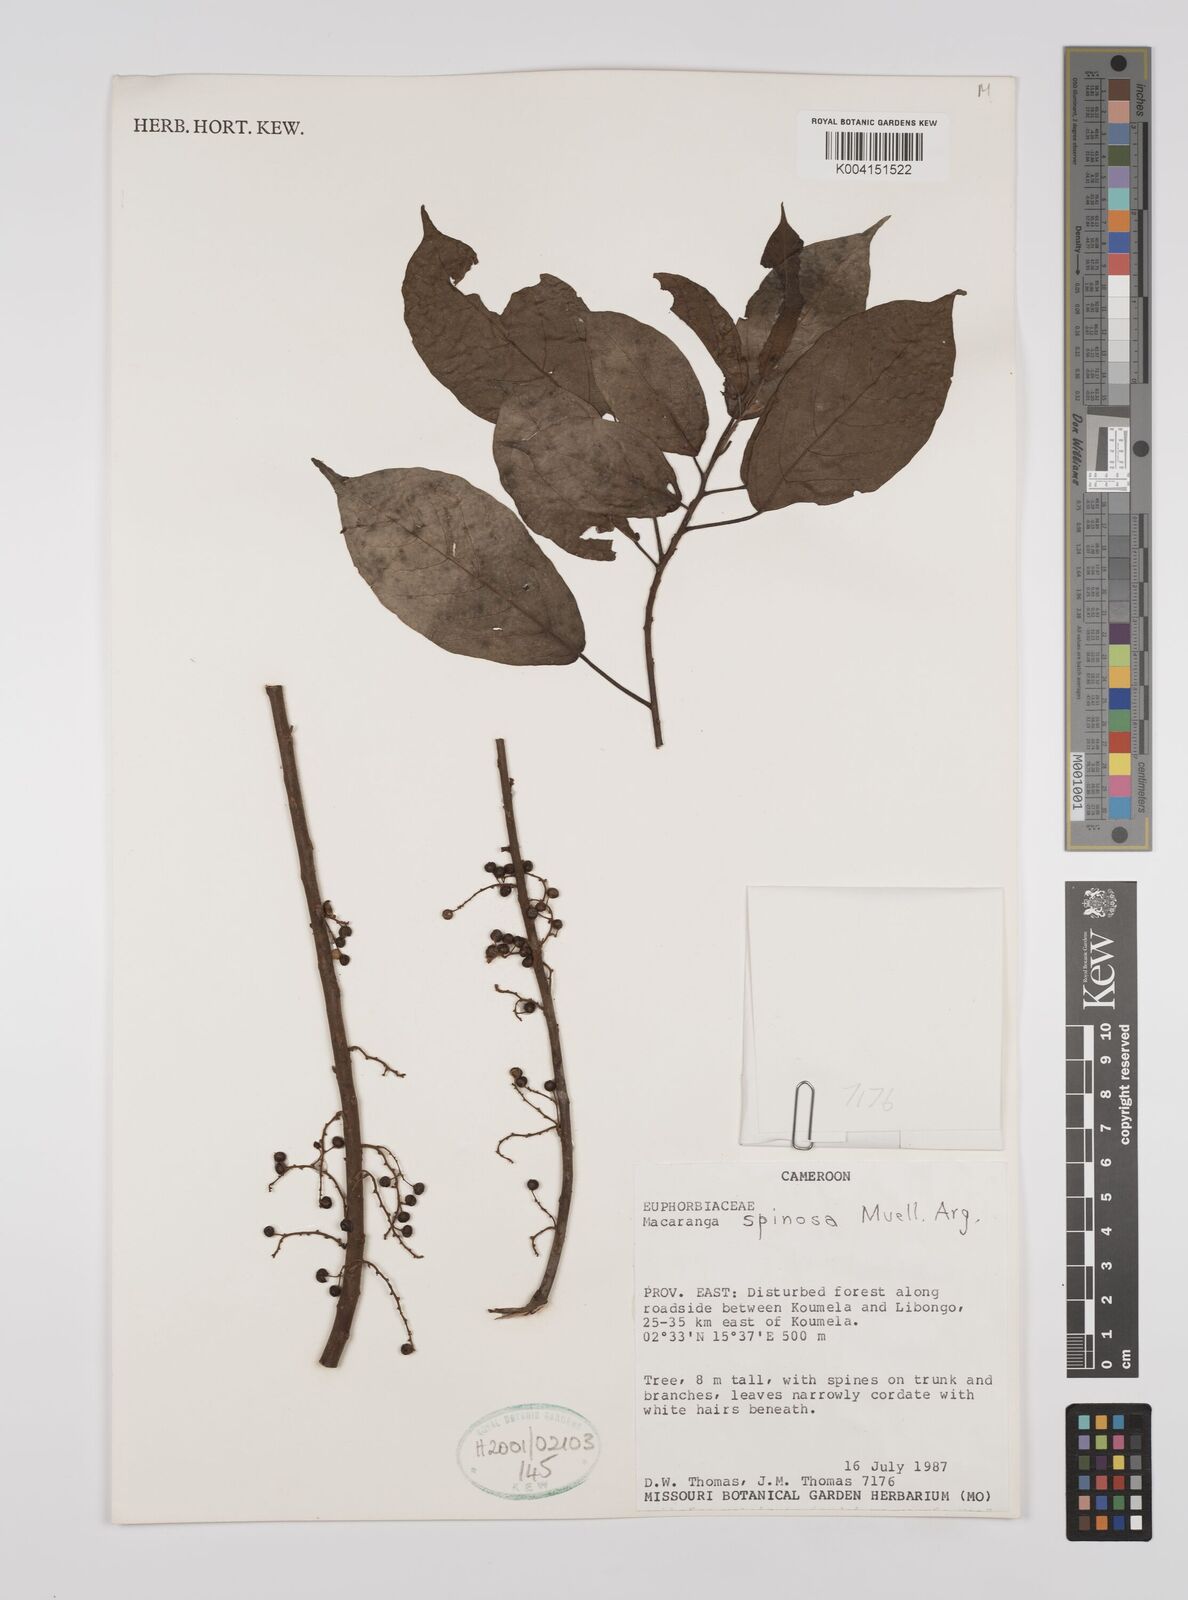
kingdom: Plantae
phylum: Tracheophyta
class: Magnoliopsida
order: Malpighiales
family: Euphorbiaceae
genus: Macaranga
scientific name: Macaranga spinosa
